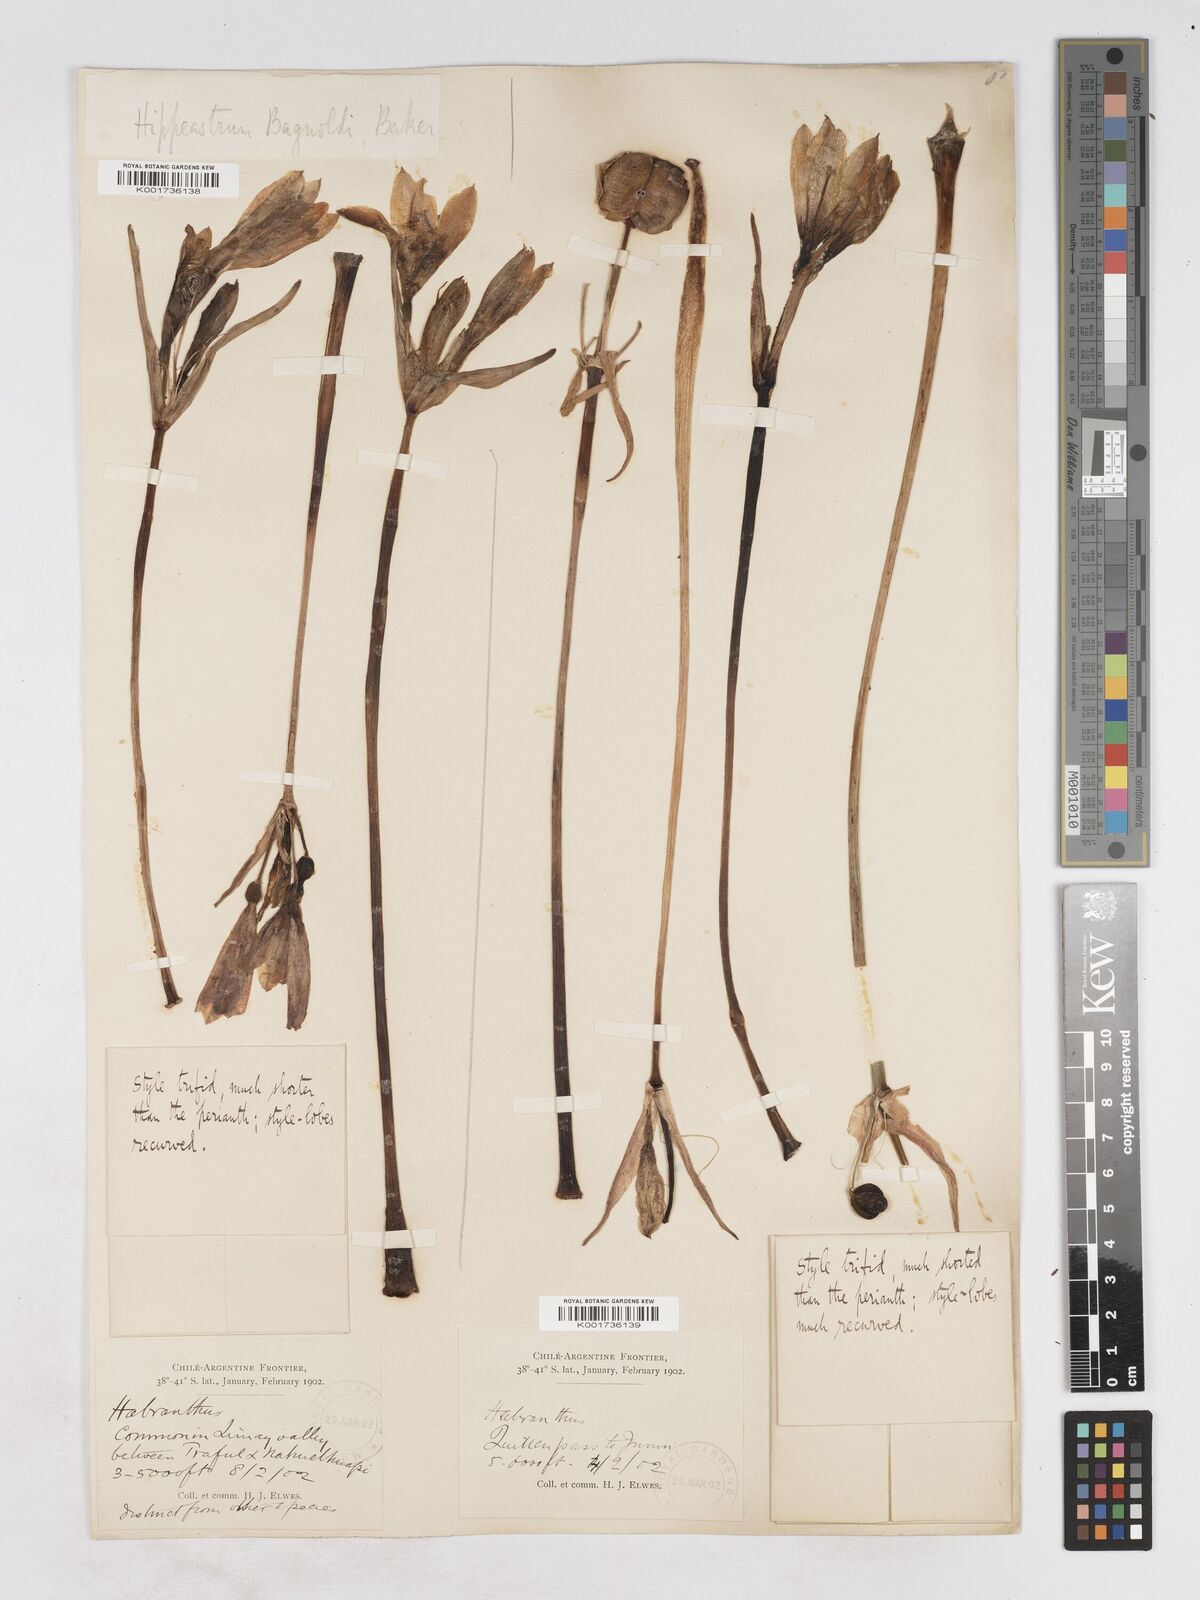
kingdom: Plantae
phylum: Tracheophyta
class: Liliopsida
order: Asparagales
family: Amaryllidaceae
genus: Zephyranthes
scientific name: Zephyranthes bagnoldii
